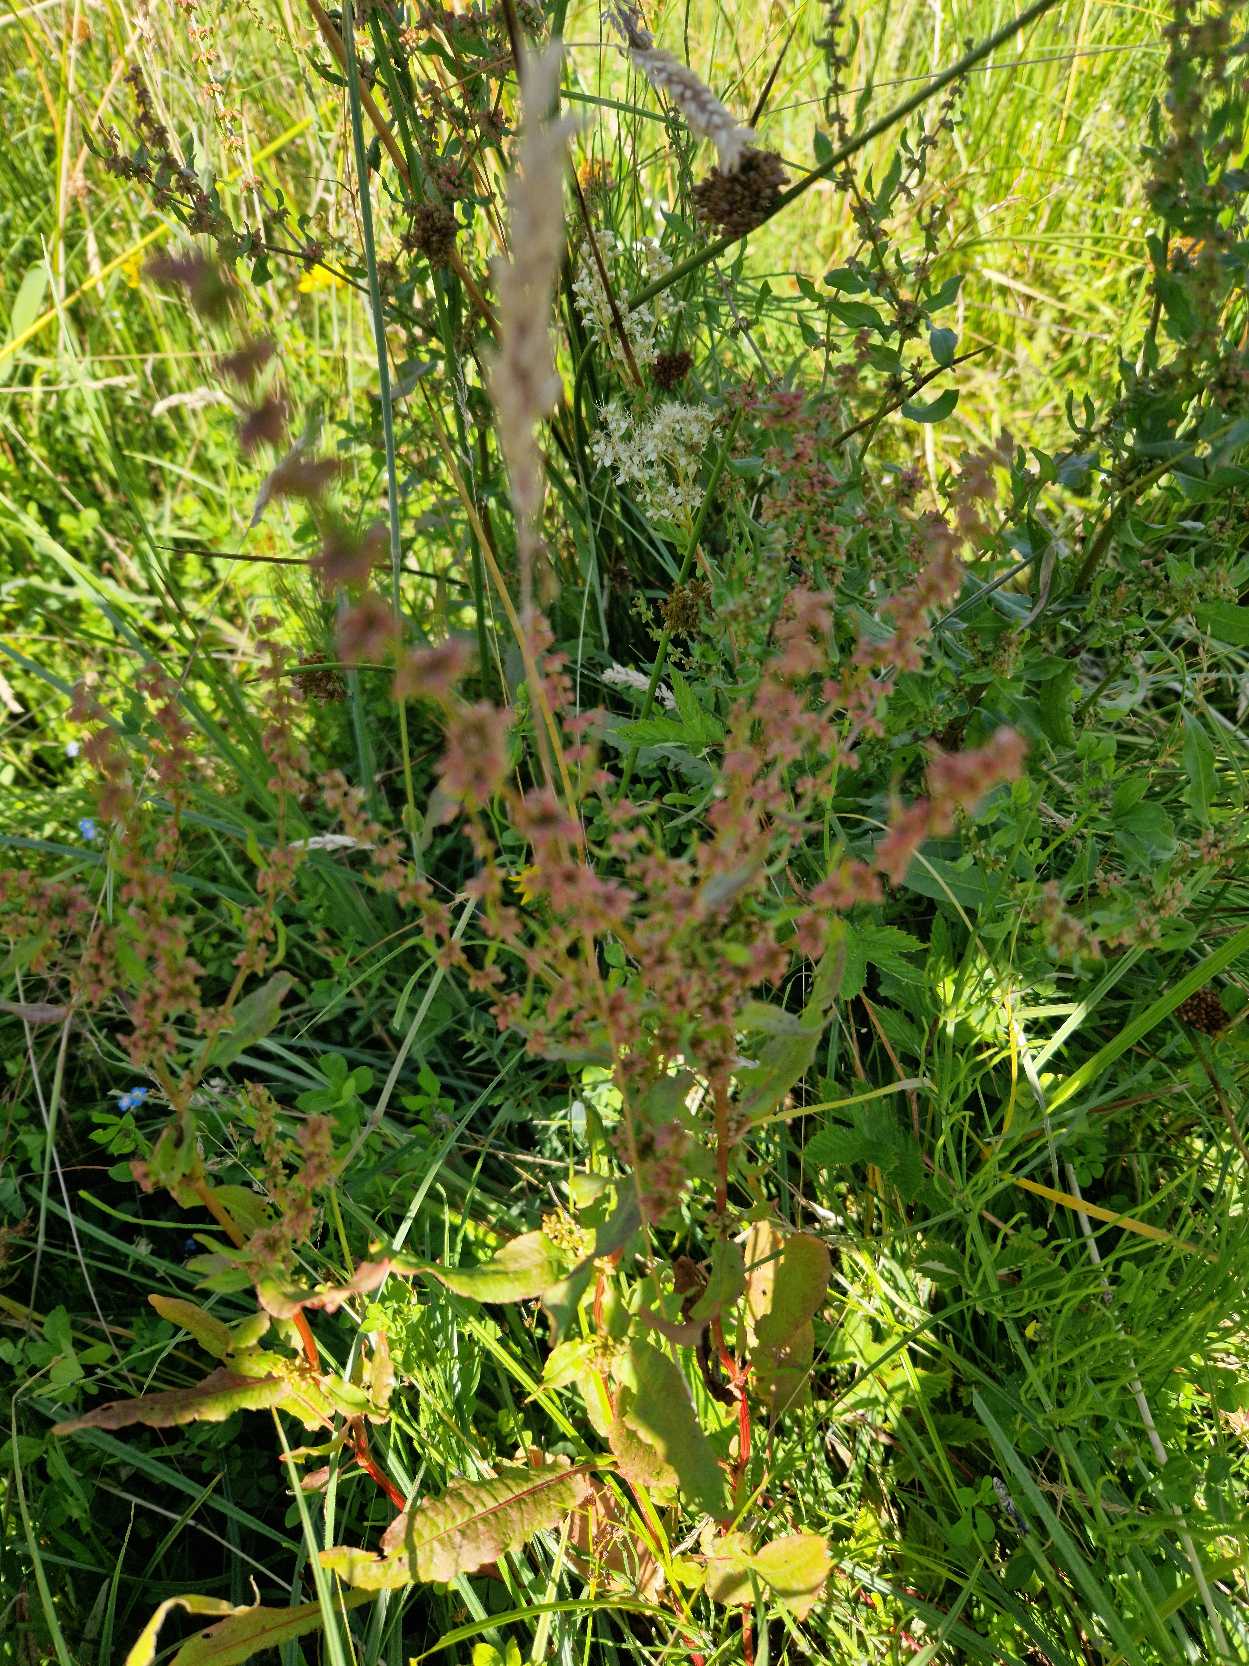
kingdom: Plantae
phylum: Tracheophyta
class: Magnoliopsida
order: Caryophyllales
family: Polygonaceae
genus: Rumex
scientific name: Rumex
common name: Skræppeslægten
